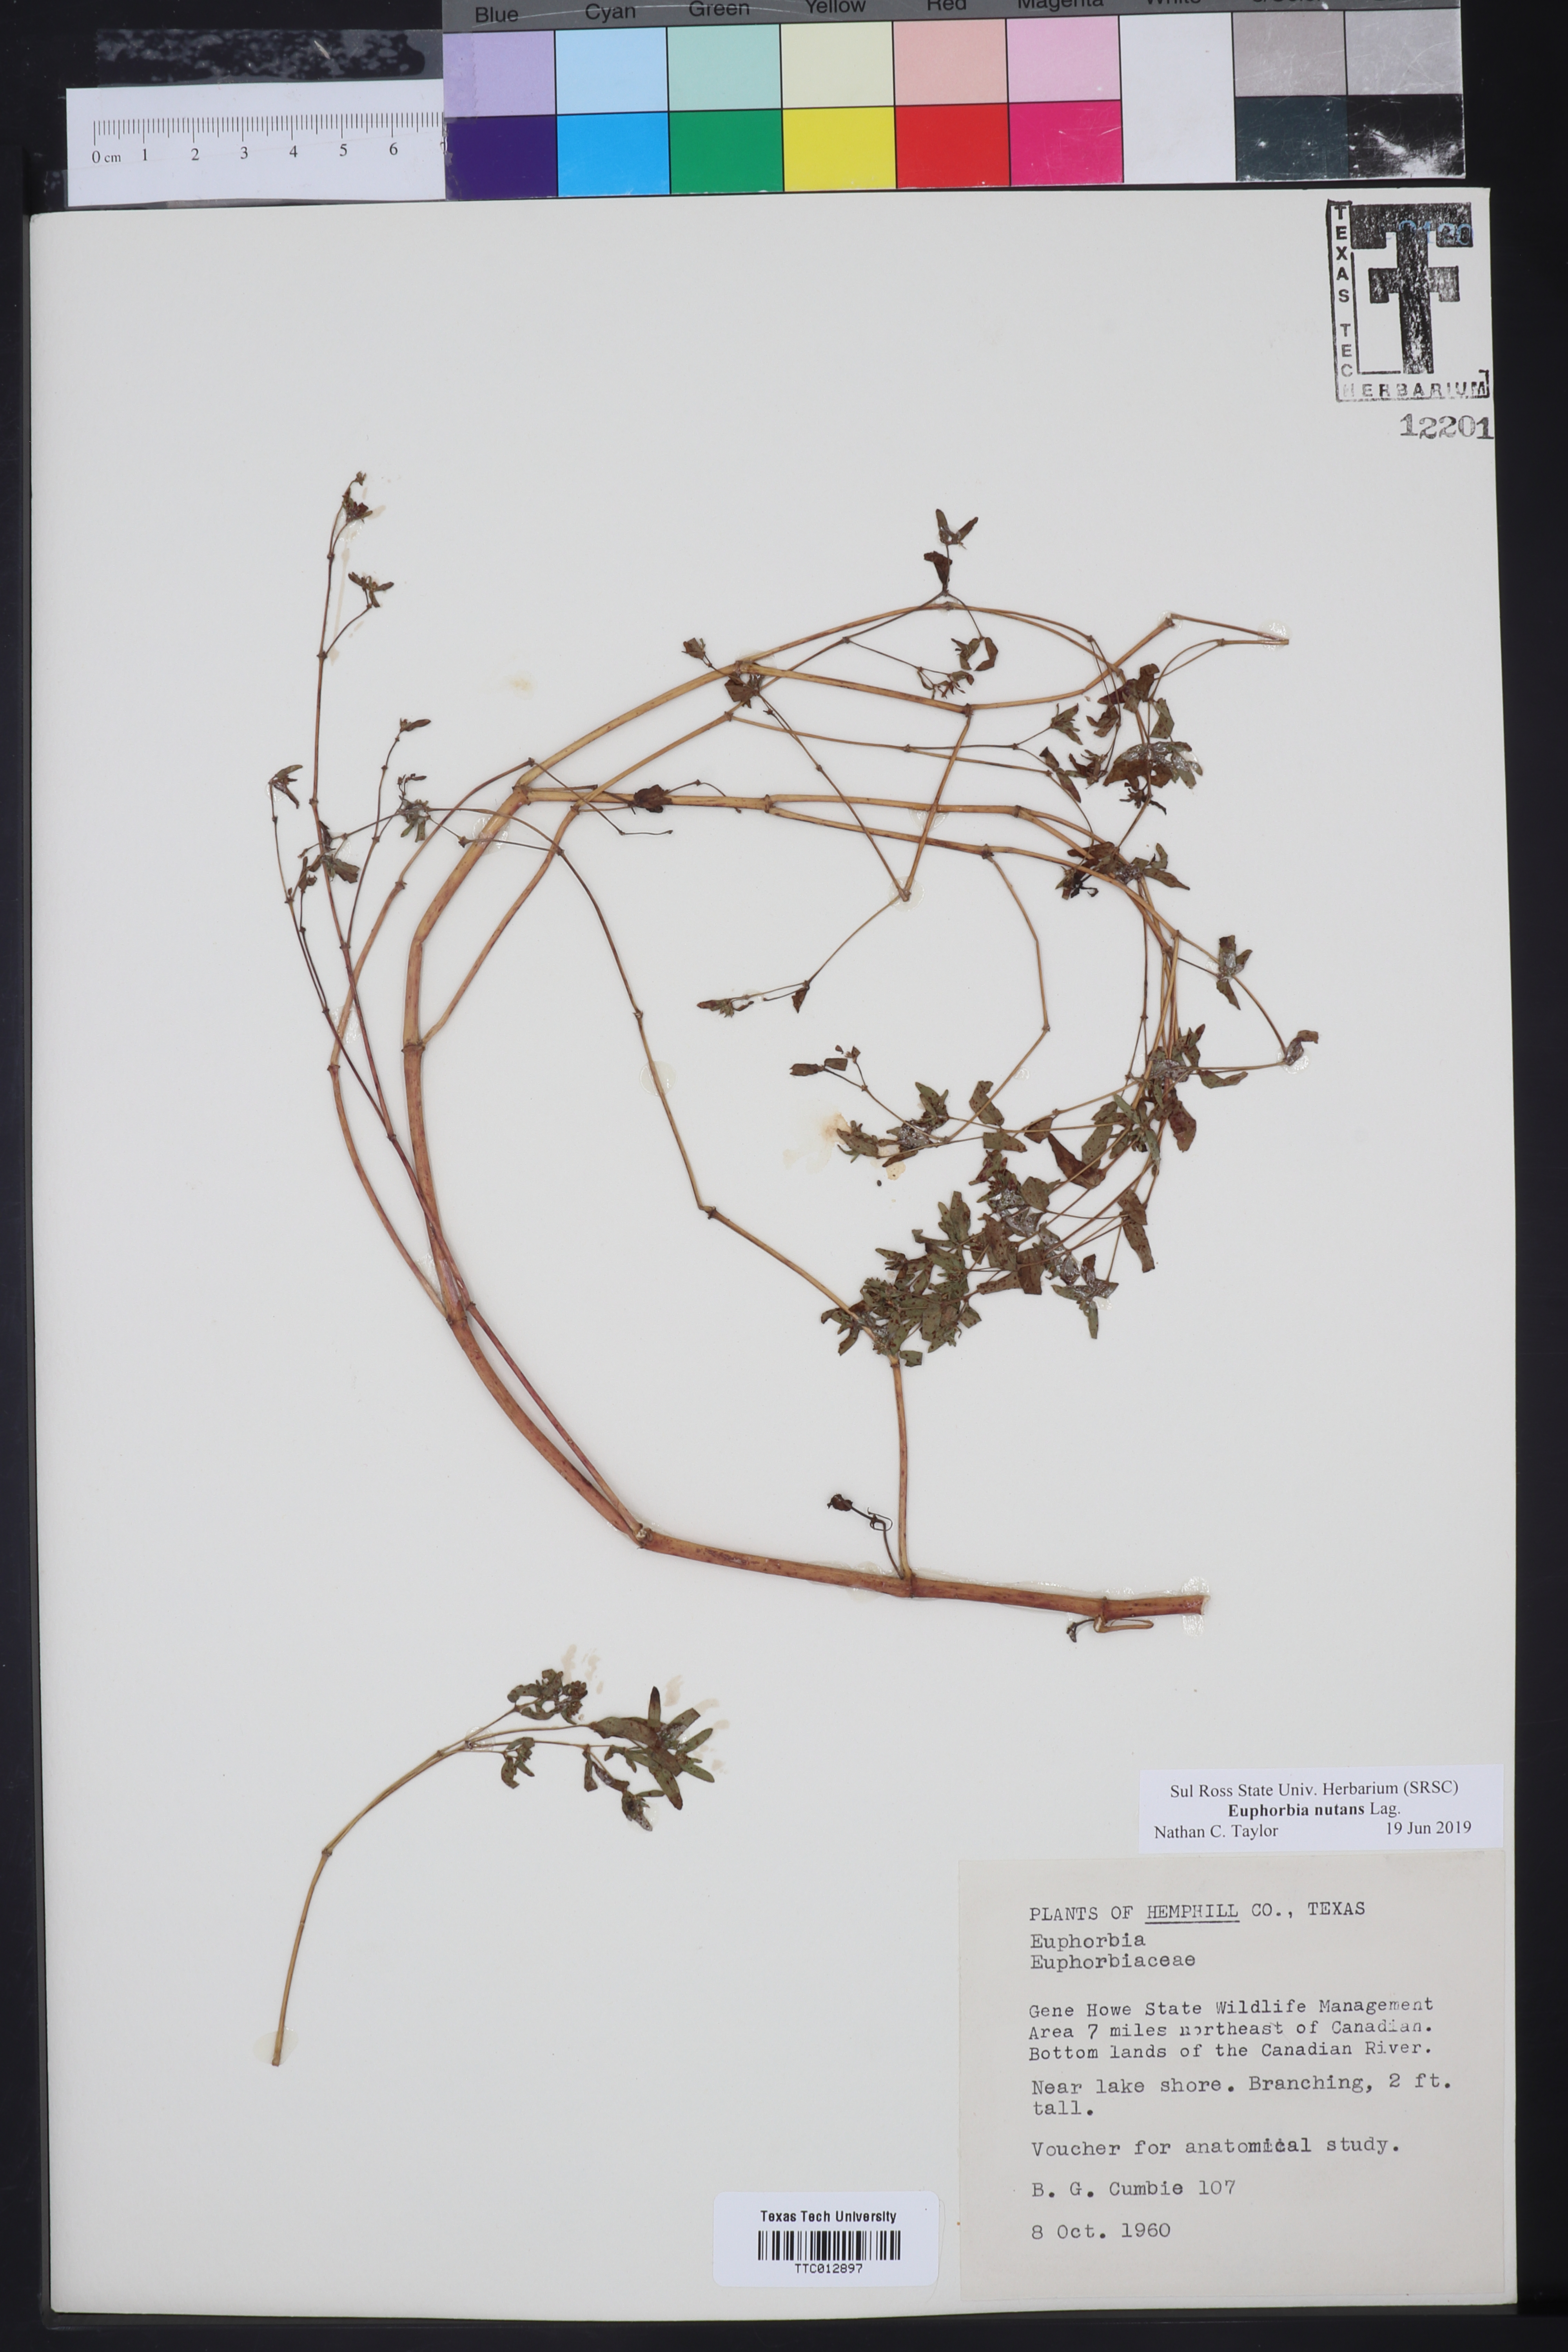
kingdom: Plantae
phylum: Tracheophyta
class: Magnoliopsida
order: Malpighiales
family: Euphorbiaceae
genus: Euphorbia
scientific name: Euphorbia nutans
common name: Eyebane
